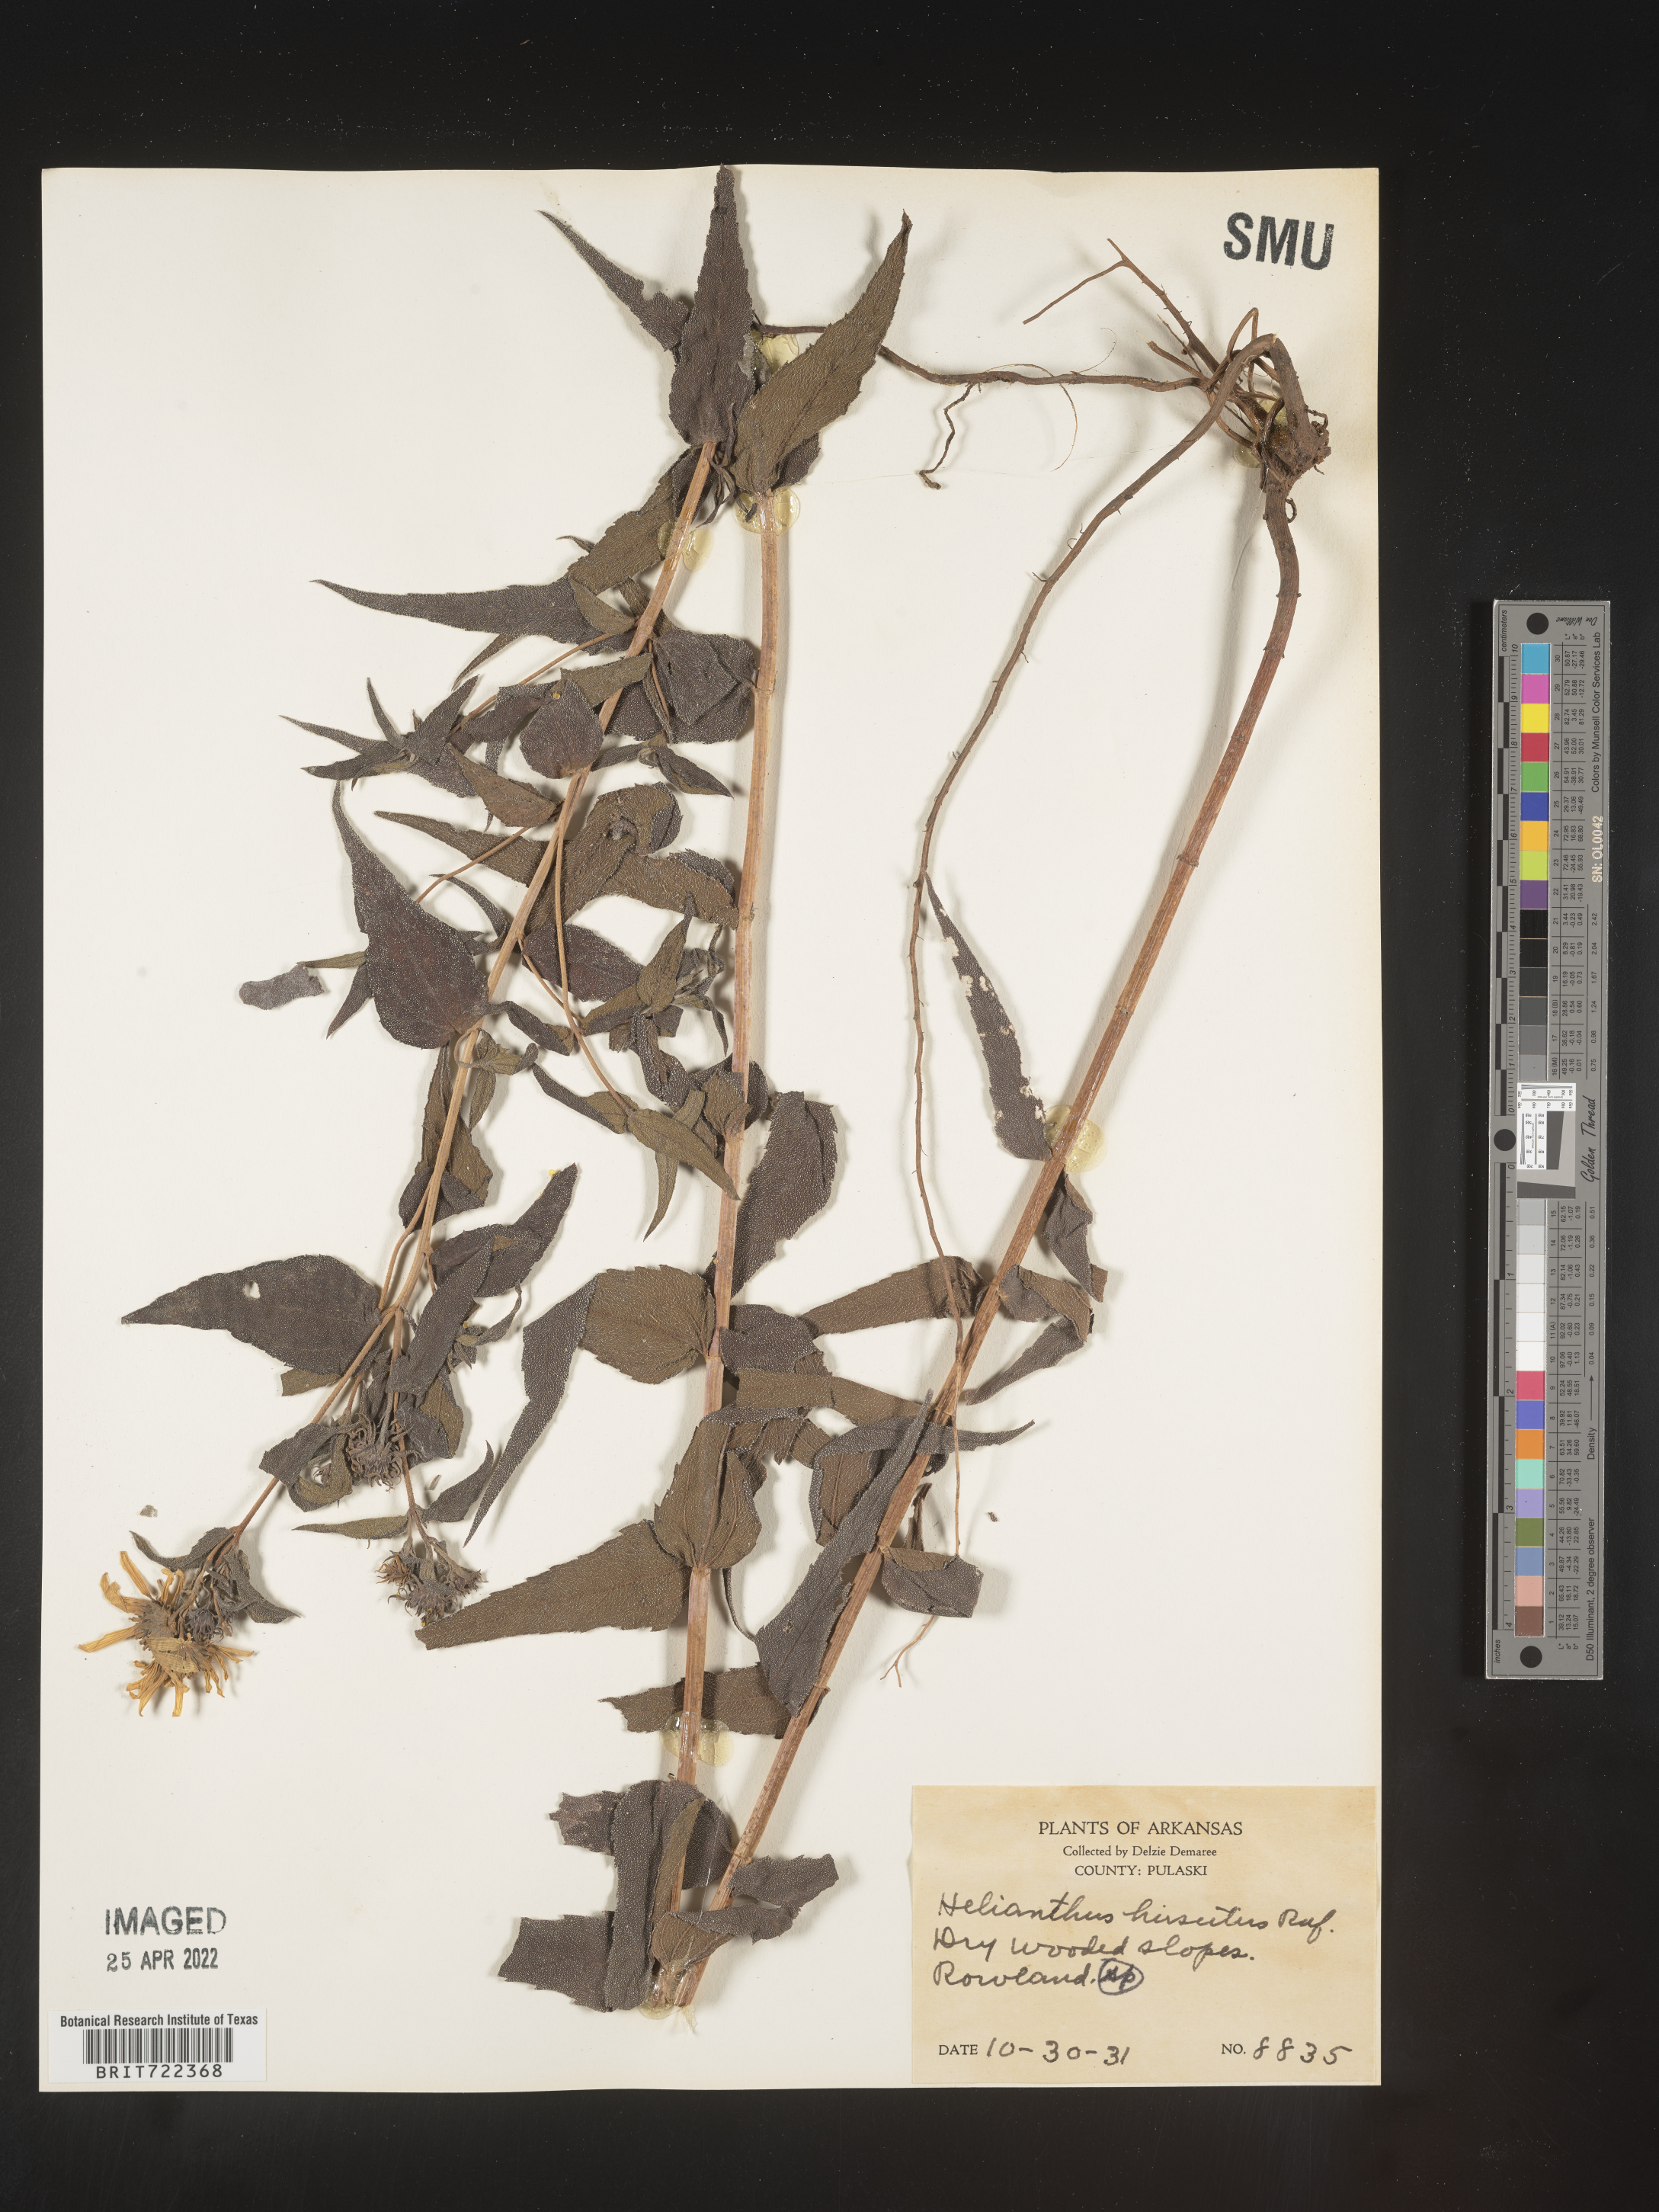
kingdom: Plantae
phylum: Tracheophyta
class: Magnoliopsida
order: Asterales
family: Asteraceae
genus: Helianthus
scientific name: Helianthus hirsutus
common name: Hairy sunflower
